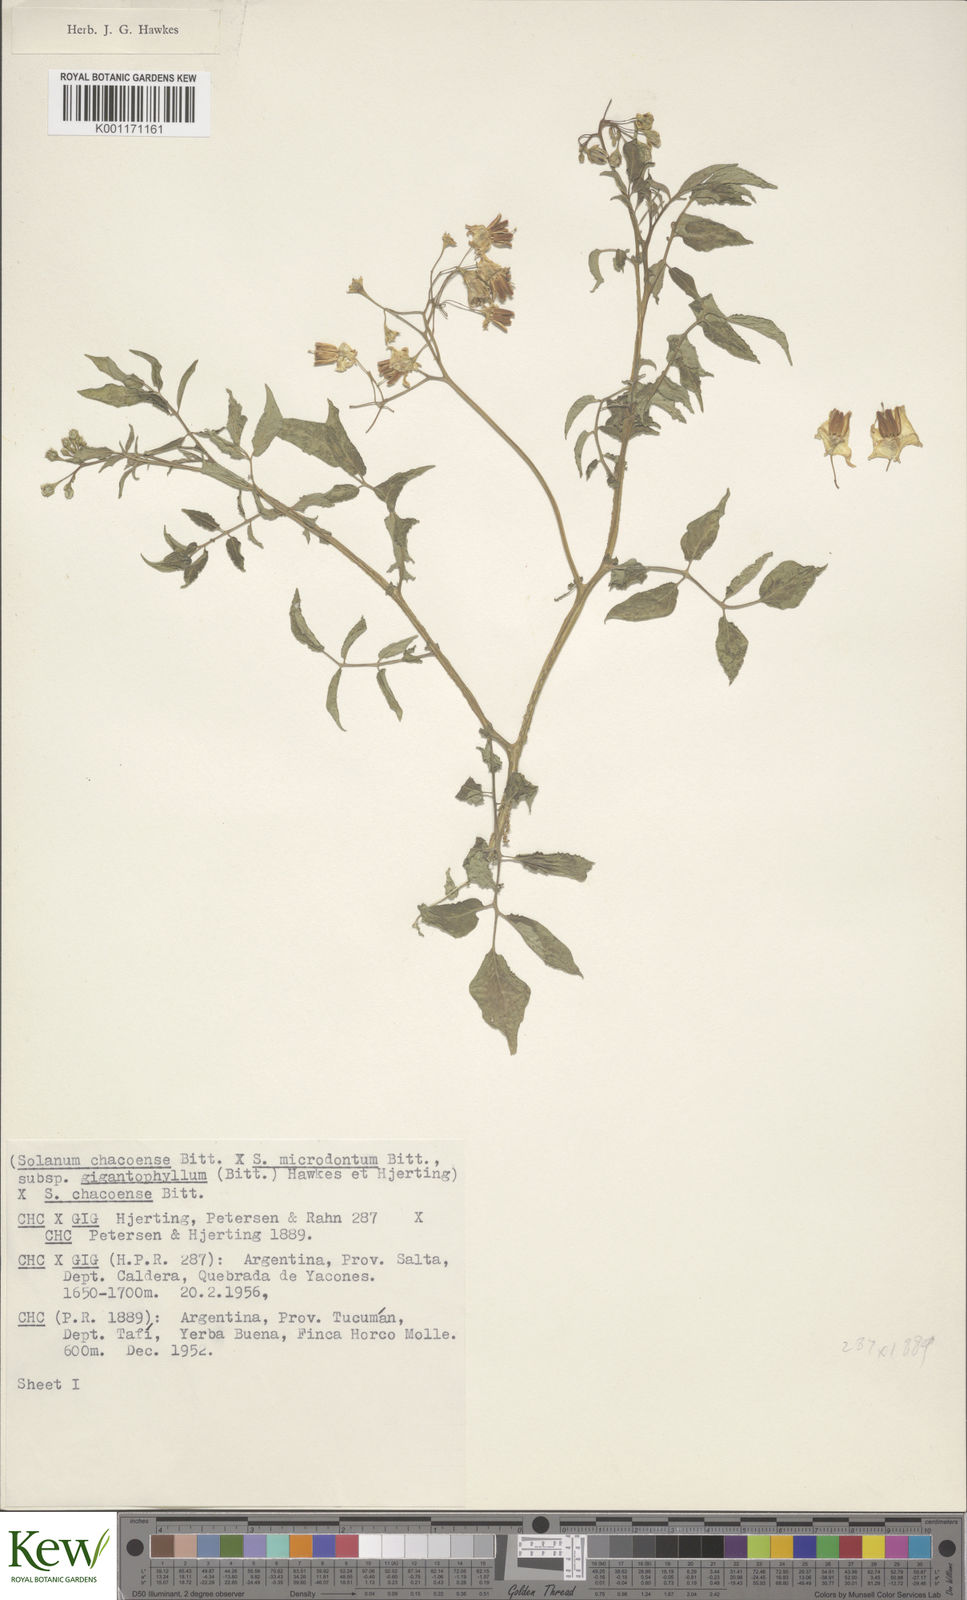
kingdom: Plantae
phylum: Tracheophyta
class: Magnoliopsida
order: Solanales
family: Solanaceae
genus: Solanum
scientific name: Solanum microdontum
